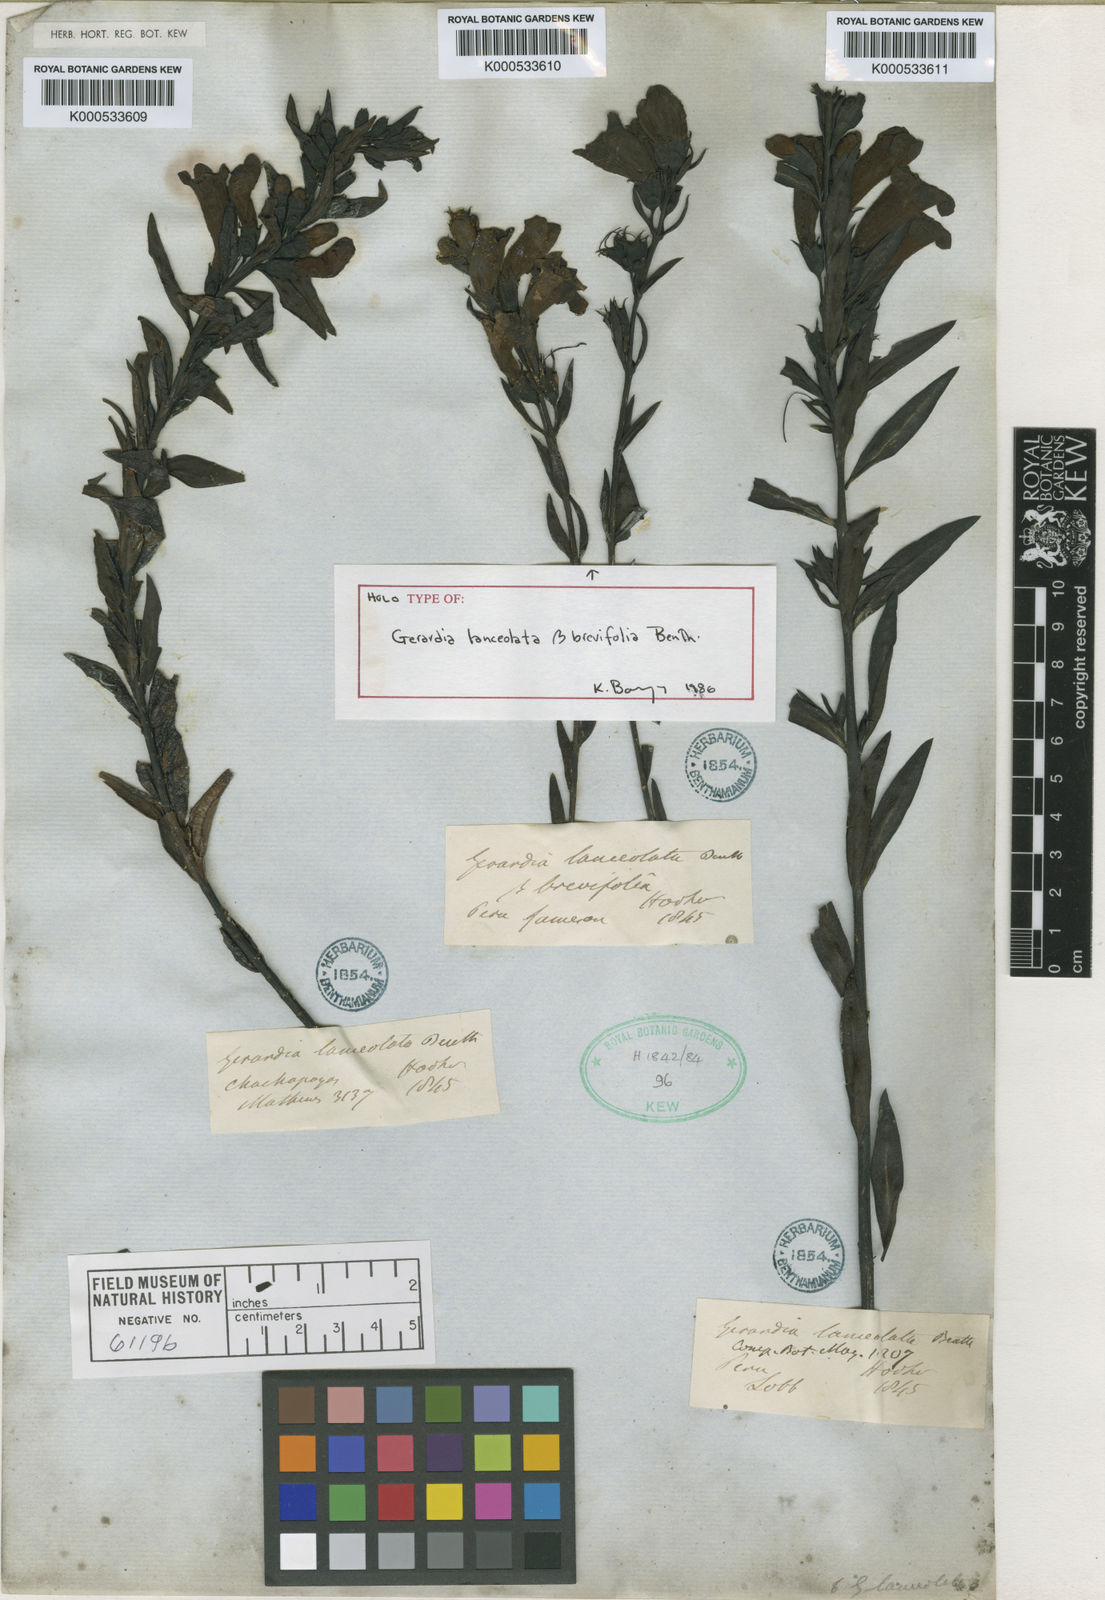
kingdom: Plantae
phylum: Tracheophyta
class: Magnoliopsida
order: Lamiales
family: Orobanchaceae
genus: Agalinis
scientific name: Agalinis lanceolata
